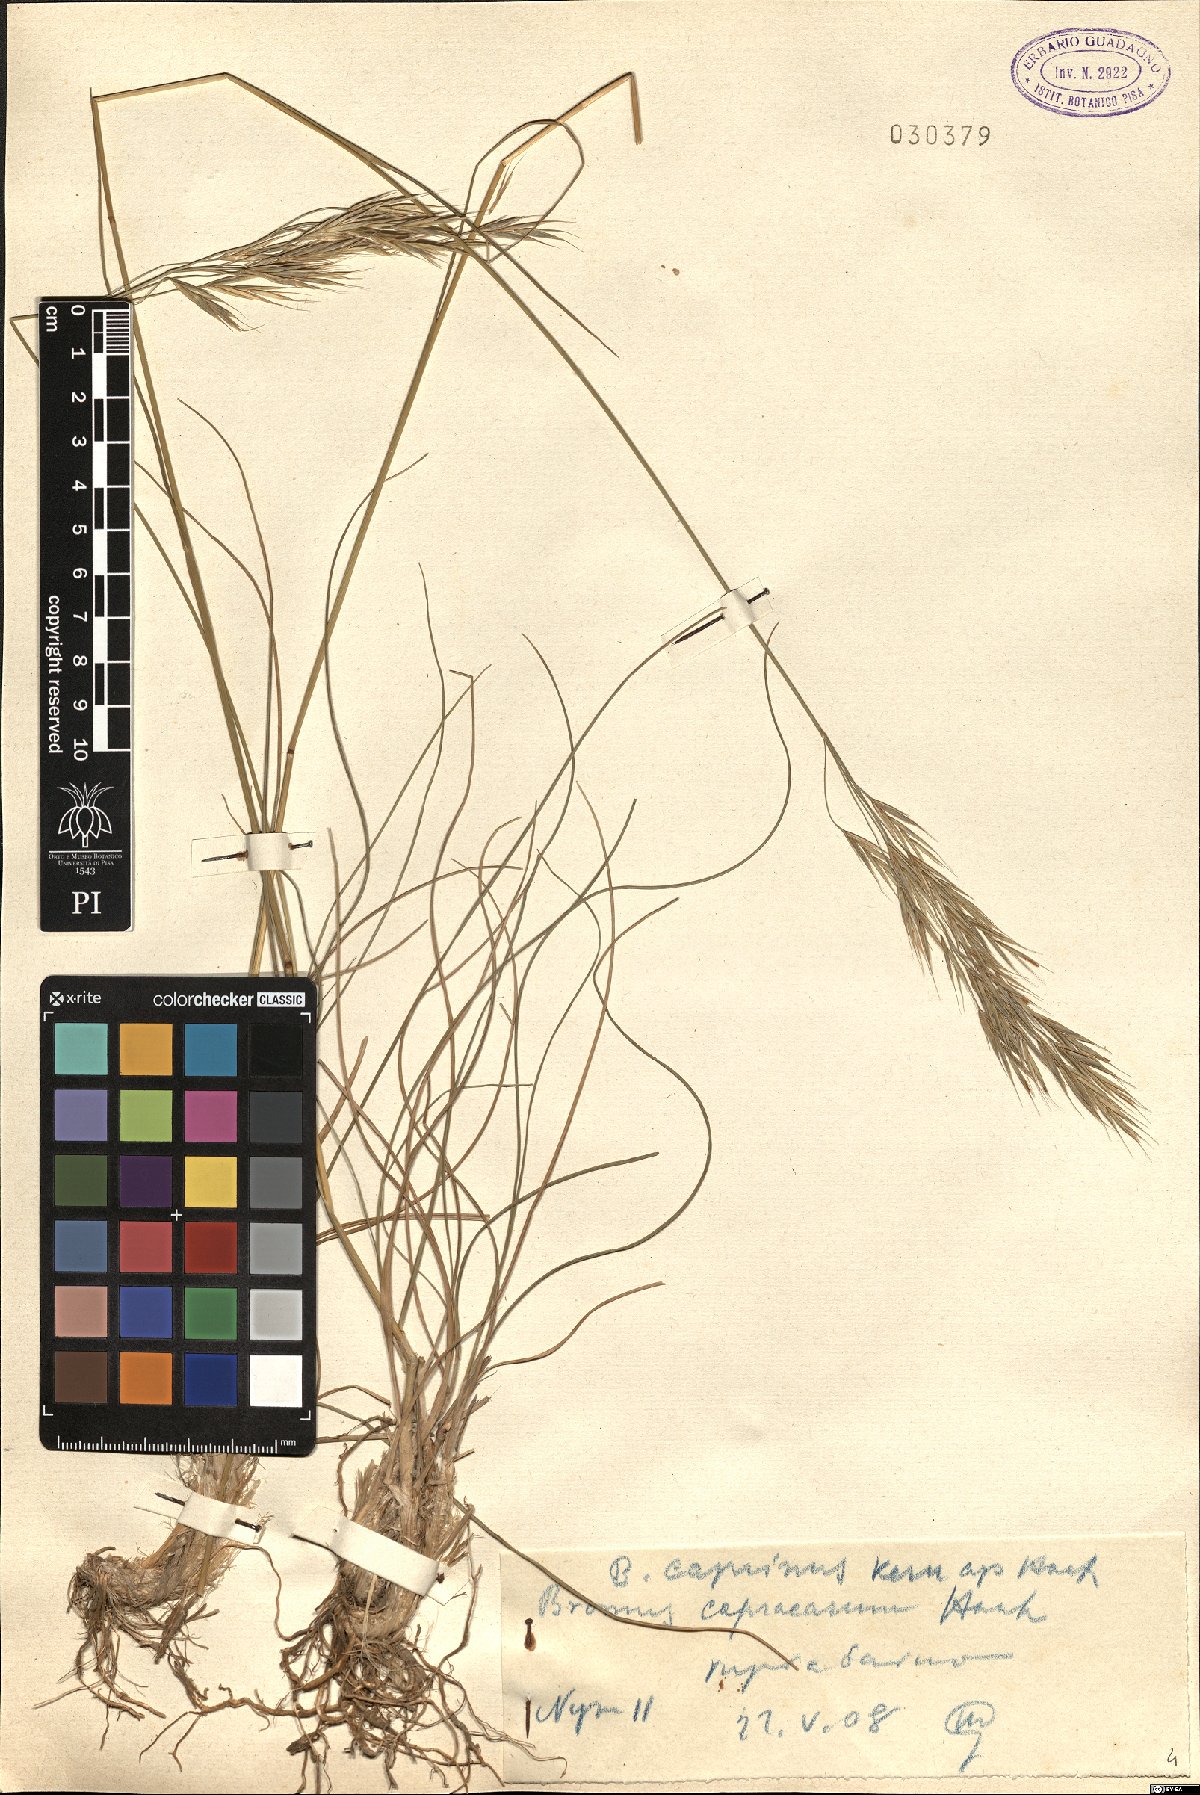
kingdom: Plantae
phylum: Tracheophyta
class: Liliopsida
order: Poales
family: Poaceae
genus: Bromus
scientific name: Bromus erectus
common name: Erect brome
